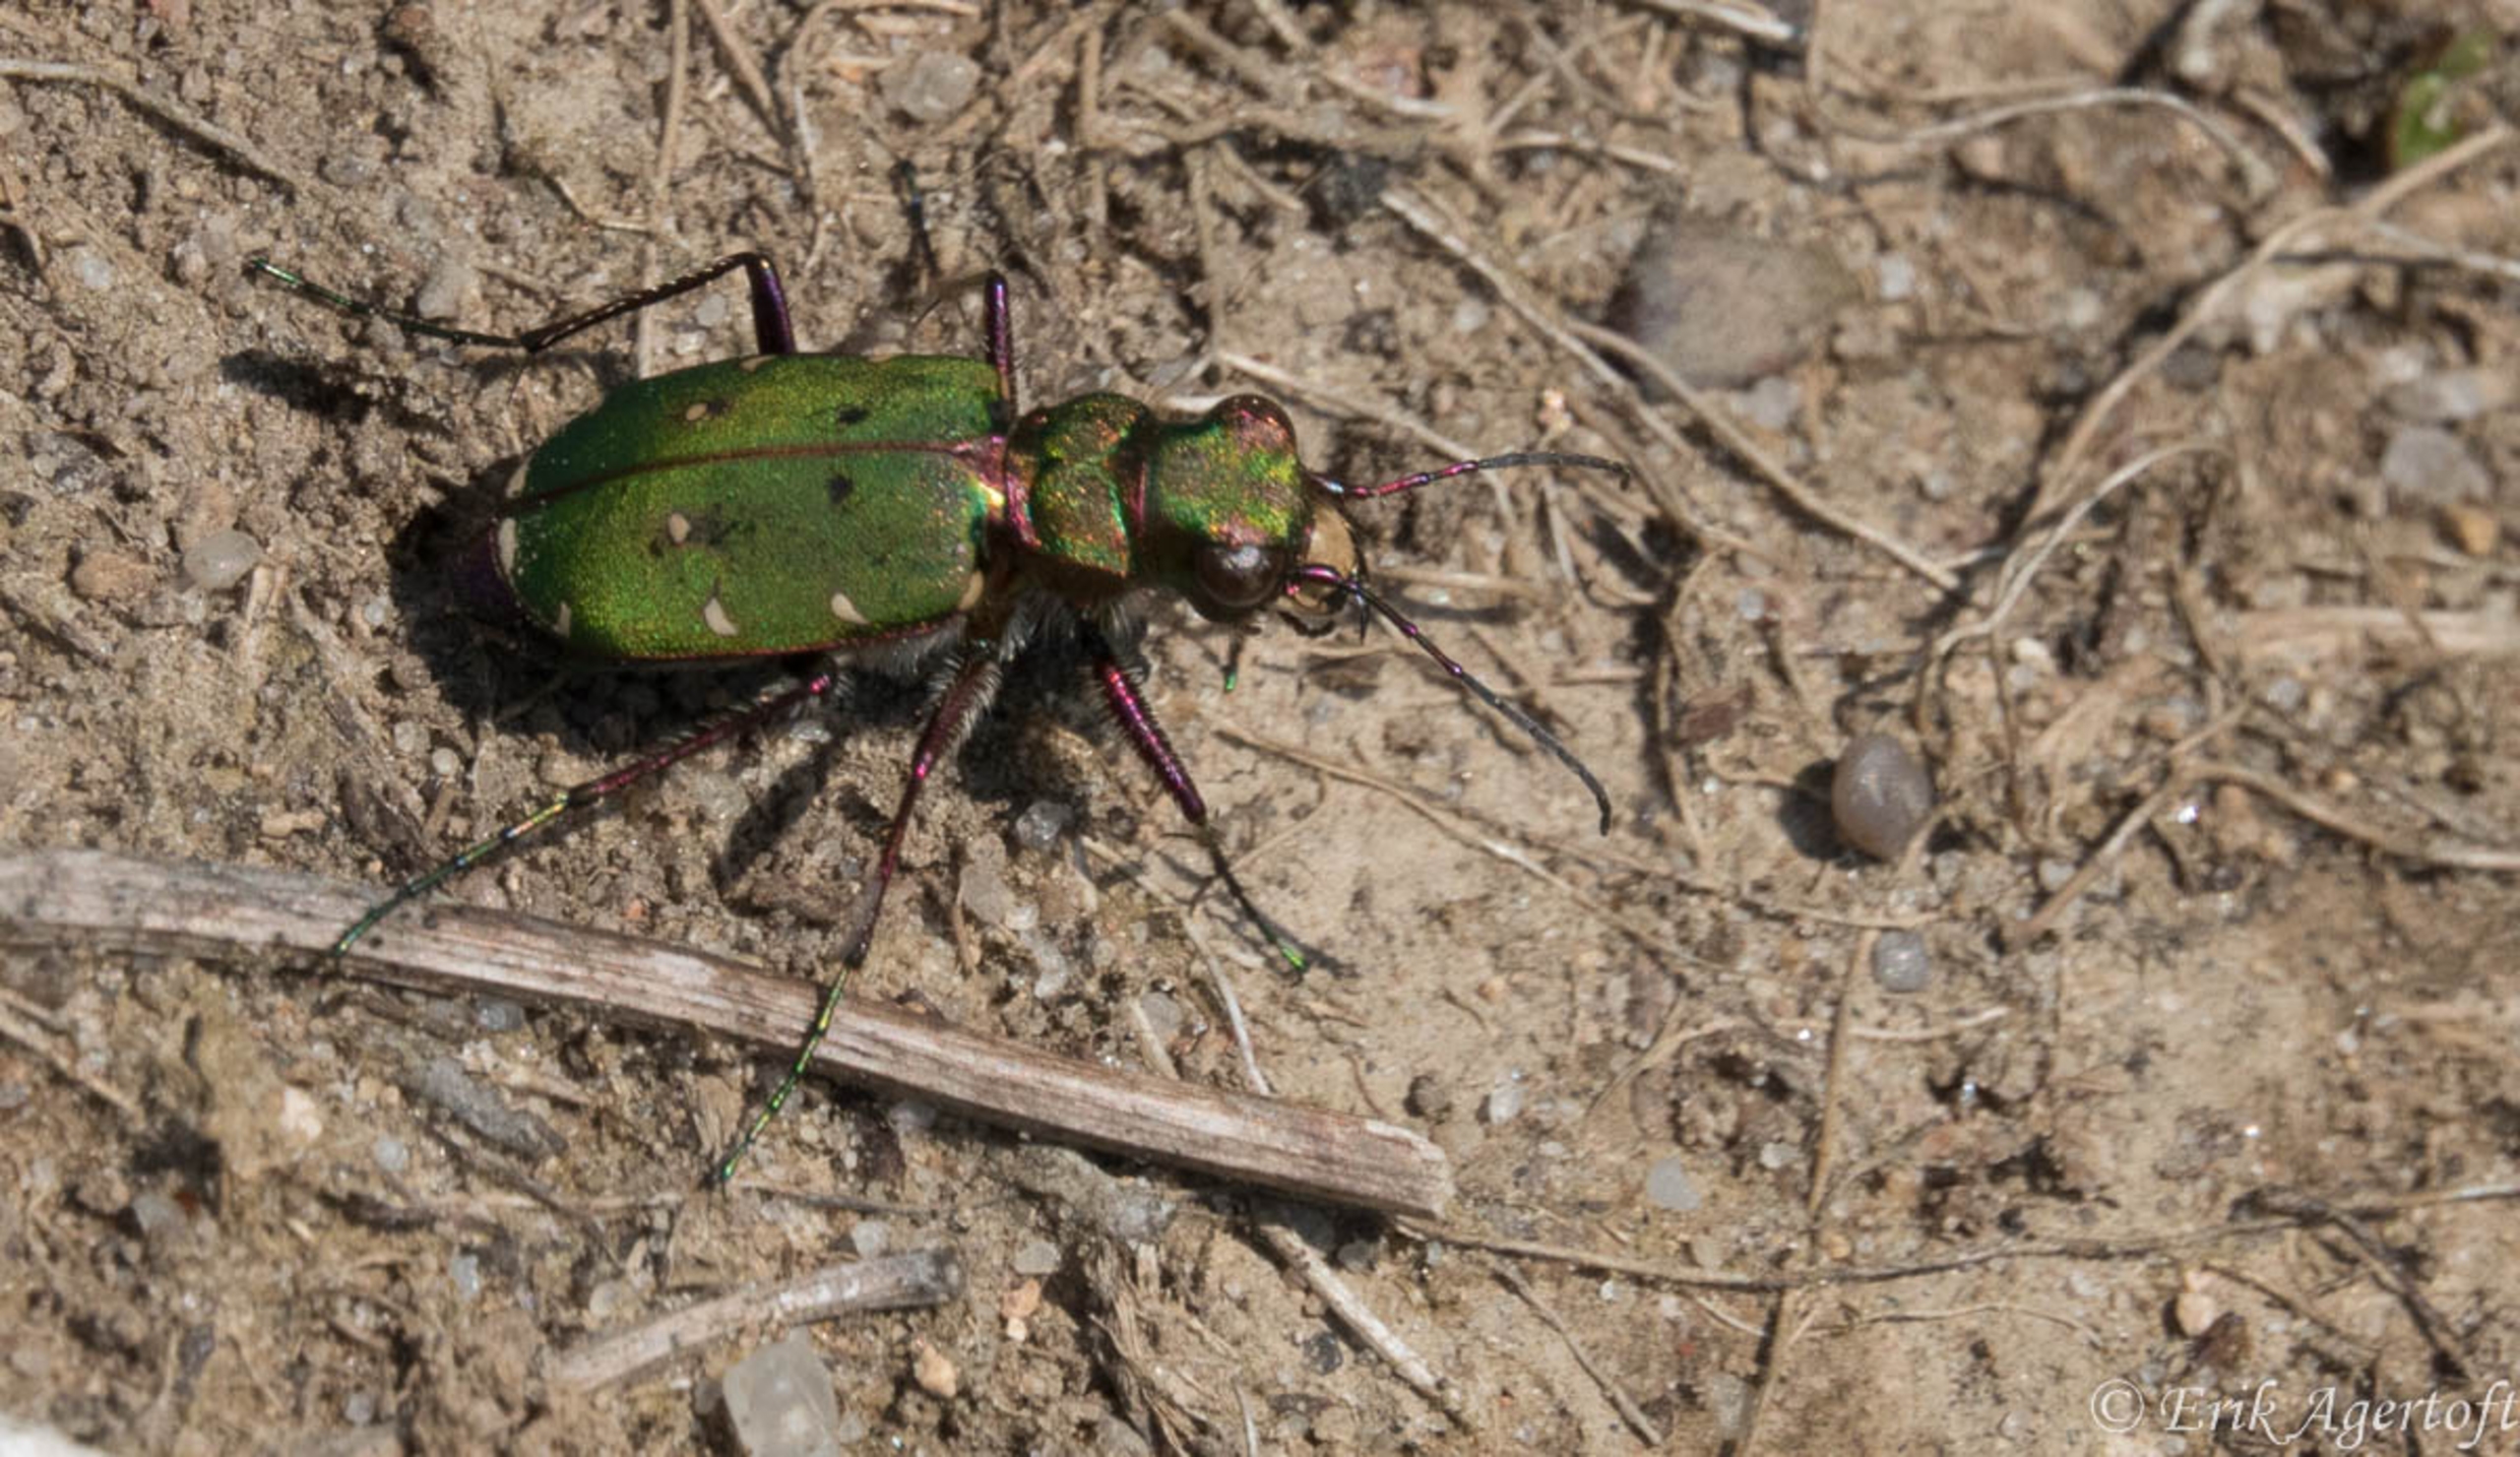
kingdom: Animalia
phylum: Arthropoda
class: Insecta
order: Coleoptera
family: Carabidae
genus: Cicindela
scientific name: Cicindela campestris
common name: Grøn sandspringer
